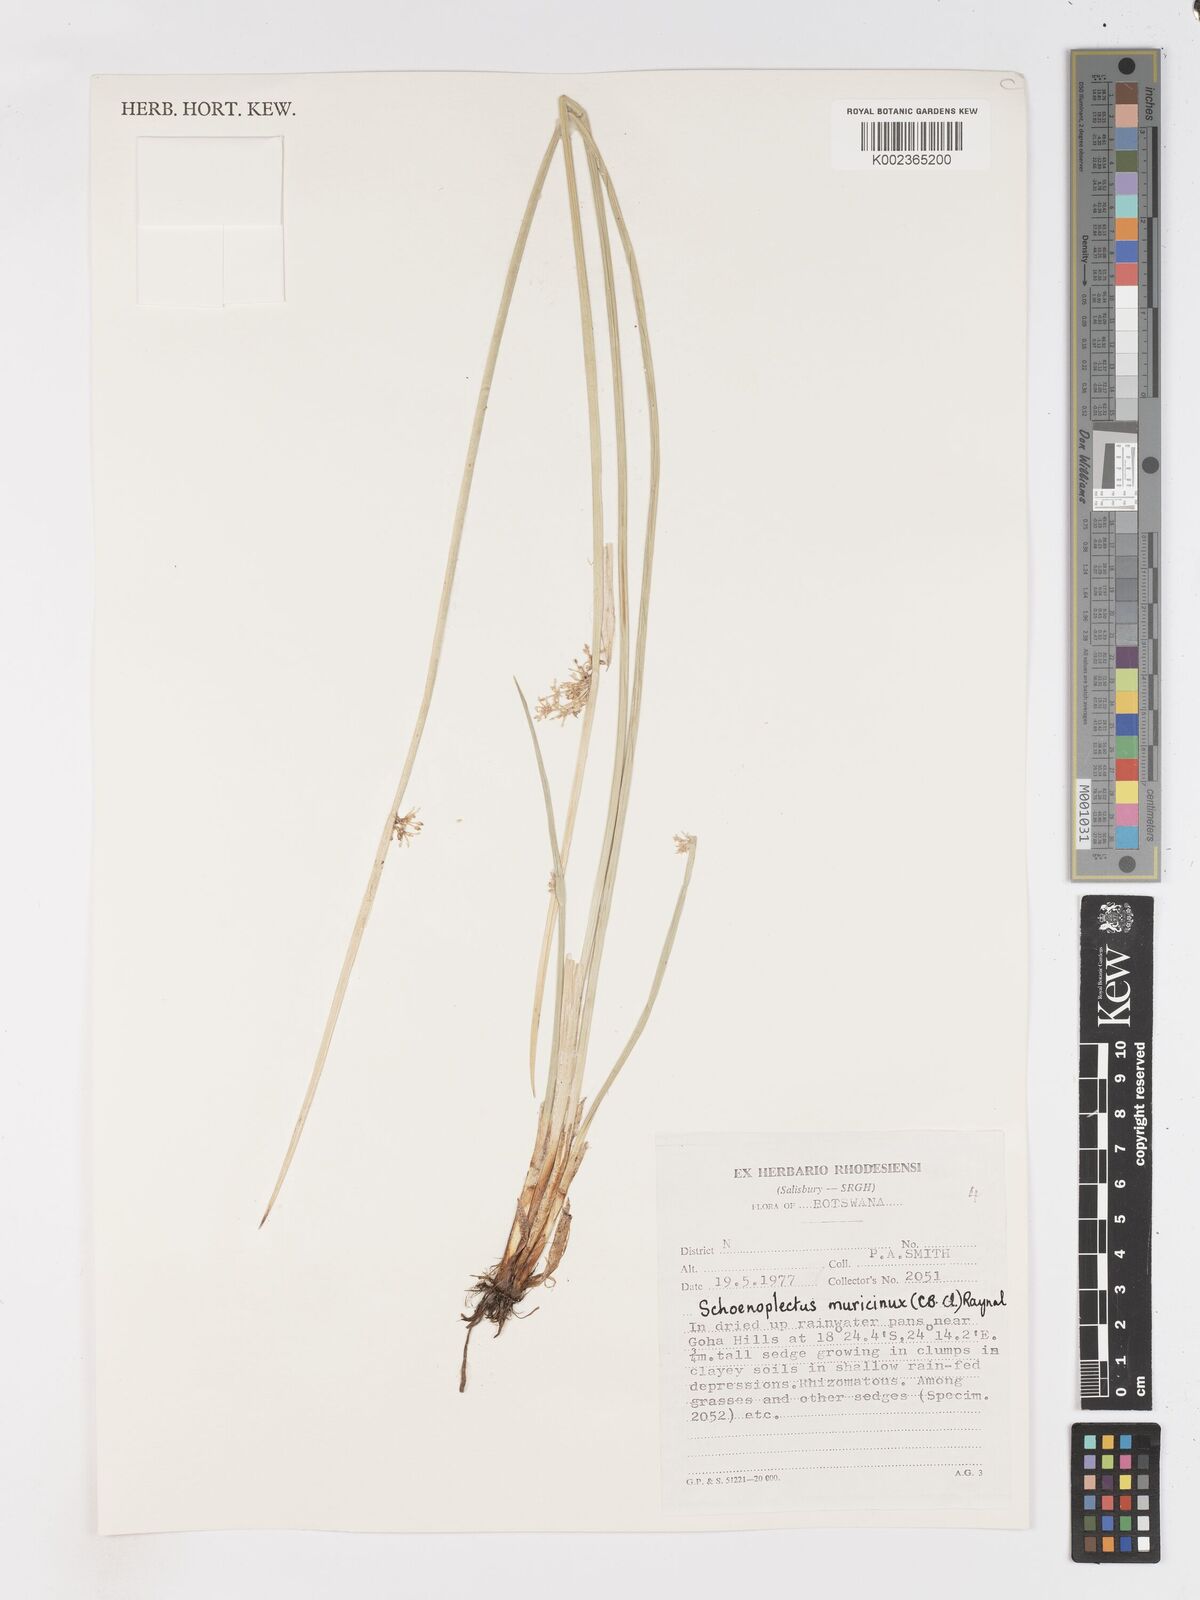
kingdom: Plantae
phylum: Tracheophyta
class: Liliopsida
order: Poales
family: Cyperaceae
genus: Schoenoplectiella
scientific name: Schoenoplectiella muricinux
